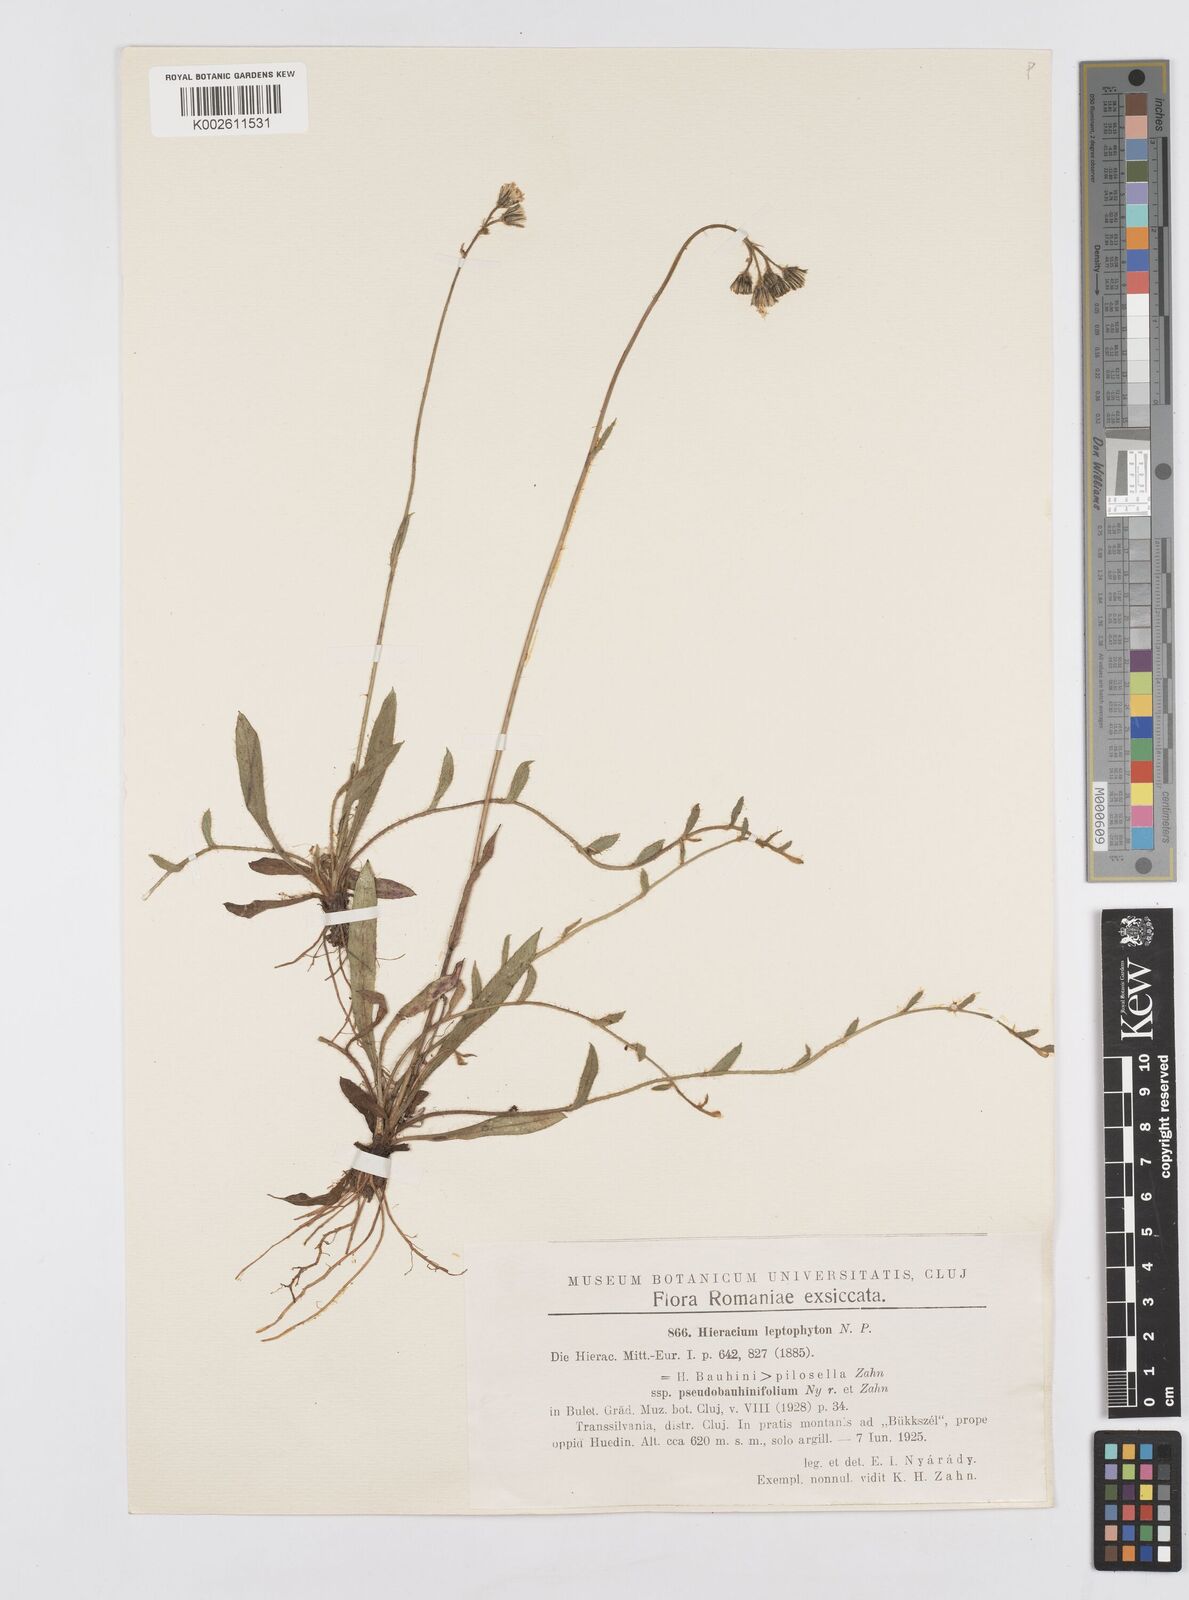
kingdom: Plantae
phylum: Tracheophyta
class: Magnoliopsida
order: Asterales
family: Asteraceae
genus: Pilosella
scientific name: Pilosella leptophyton
